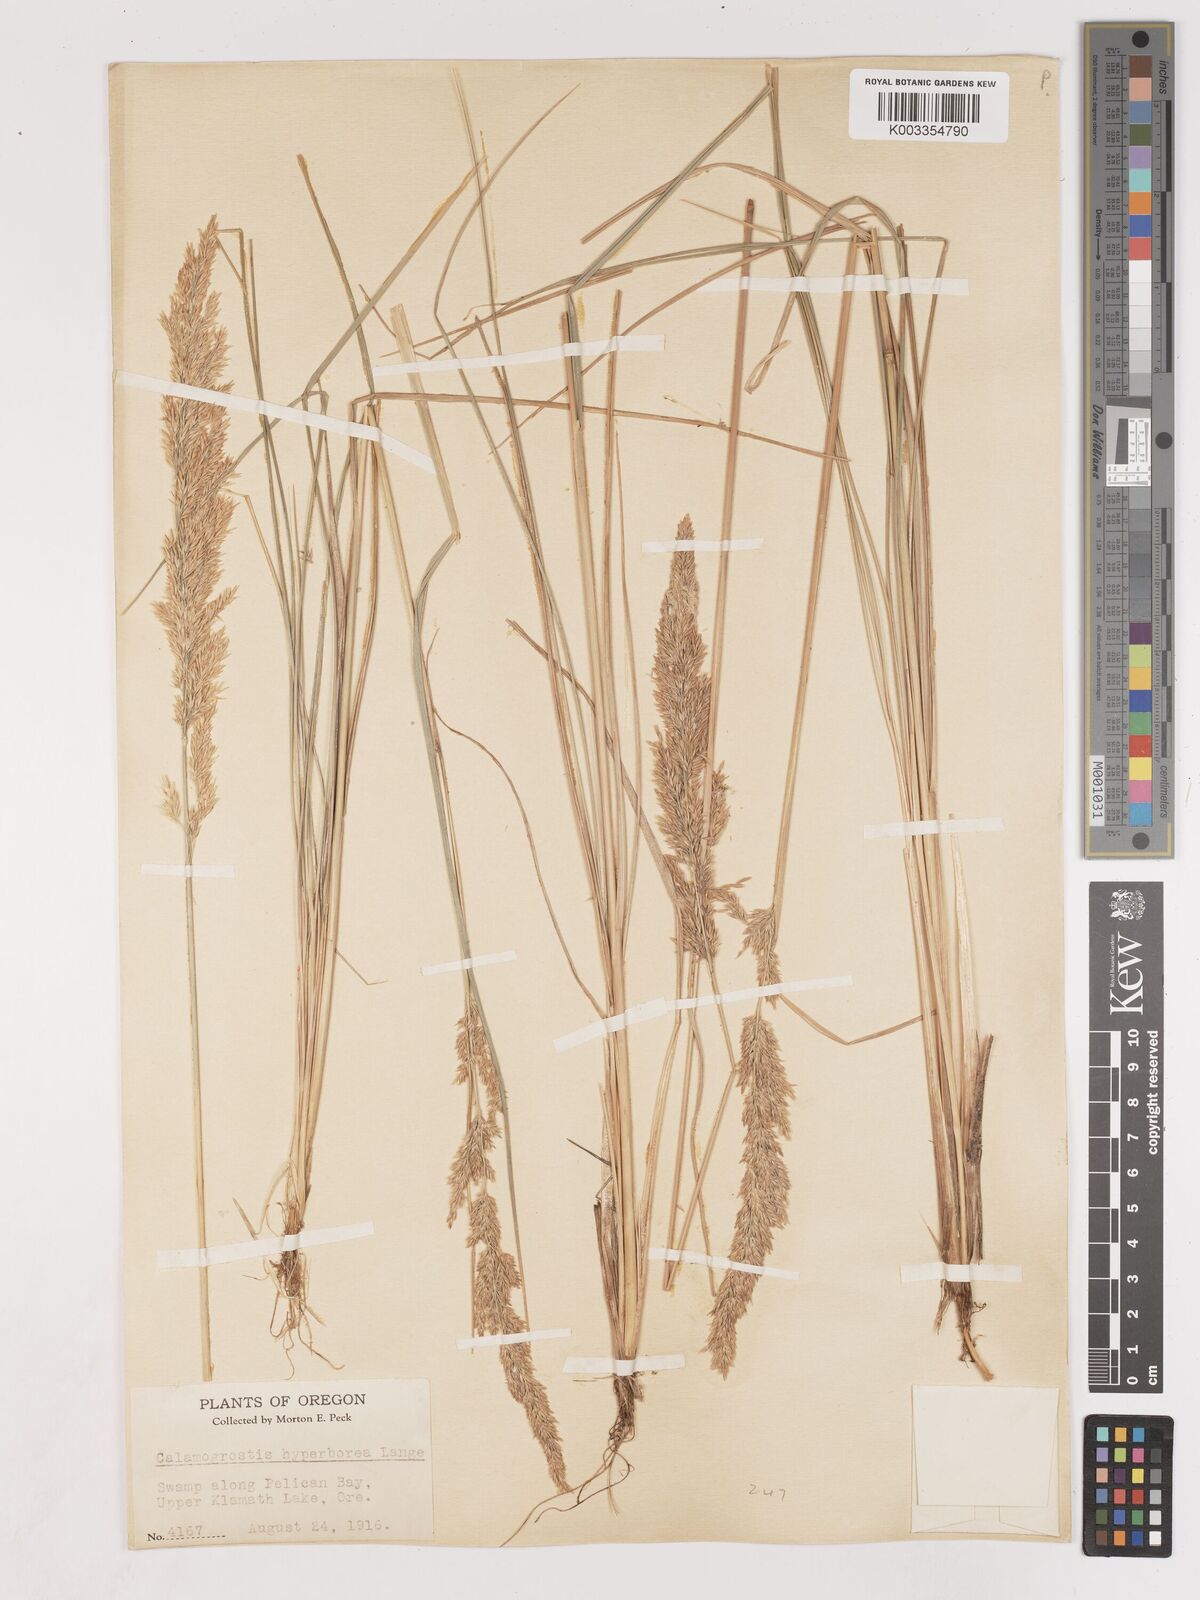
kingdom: Plantae
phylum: Tracheophyta
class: Liliopsida
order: Poales
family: Poaceae
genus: Cinnagrostis
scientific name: Cinnagrostis recta
